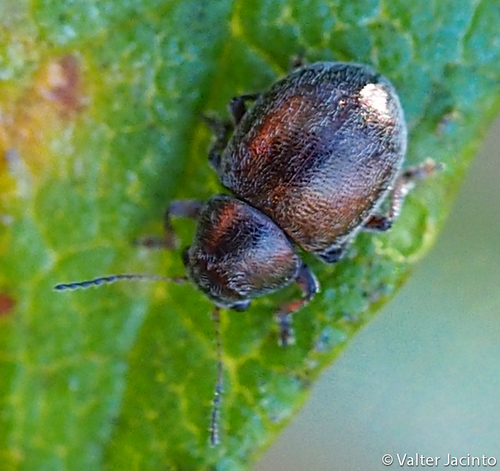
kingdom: Animalia
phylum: Arthropoda
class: Insecta
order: Coleoptera
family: Chrysomelidae
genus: Colaspidea
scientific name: Colaspidea metallica
